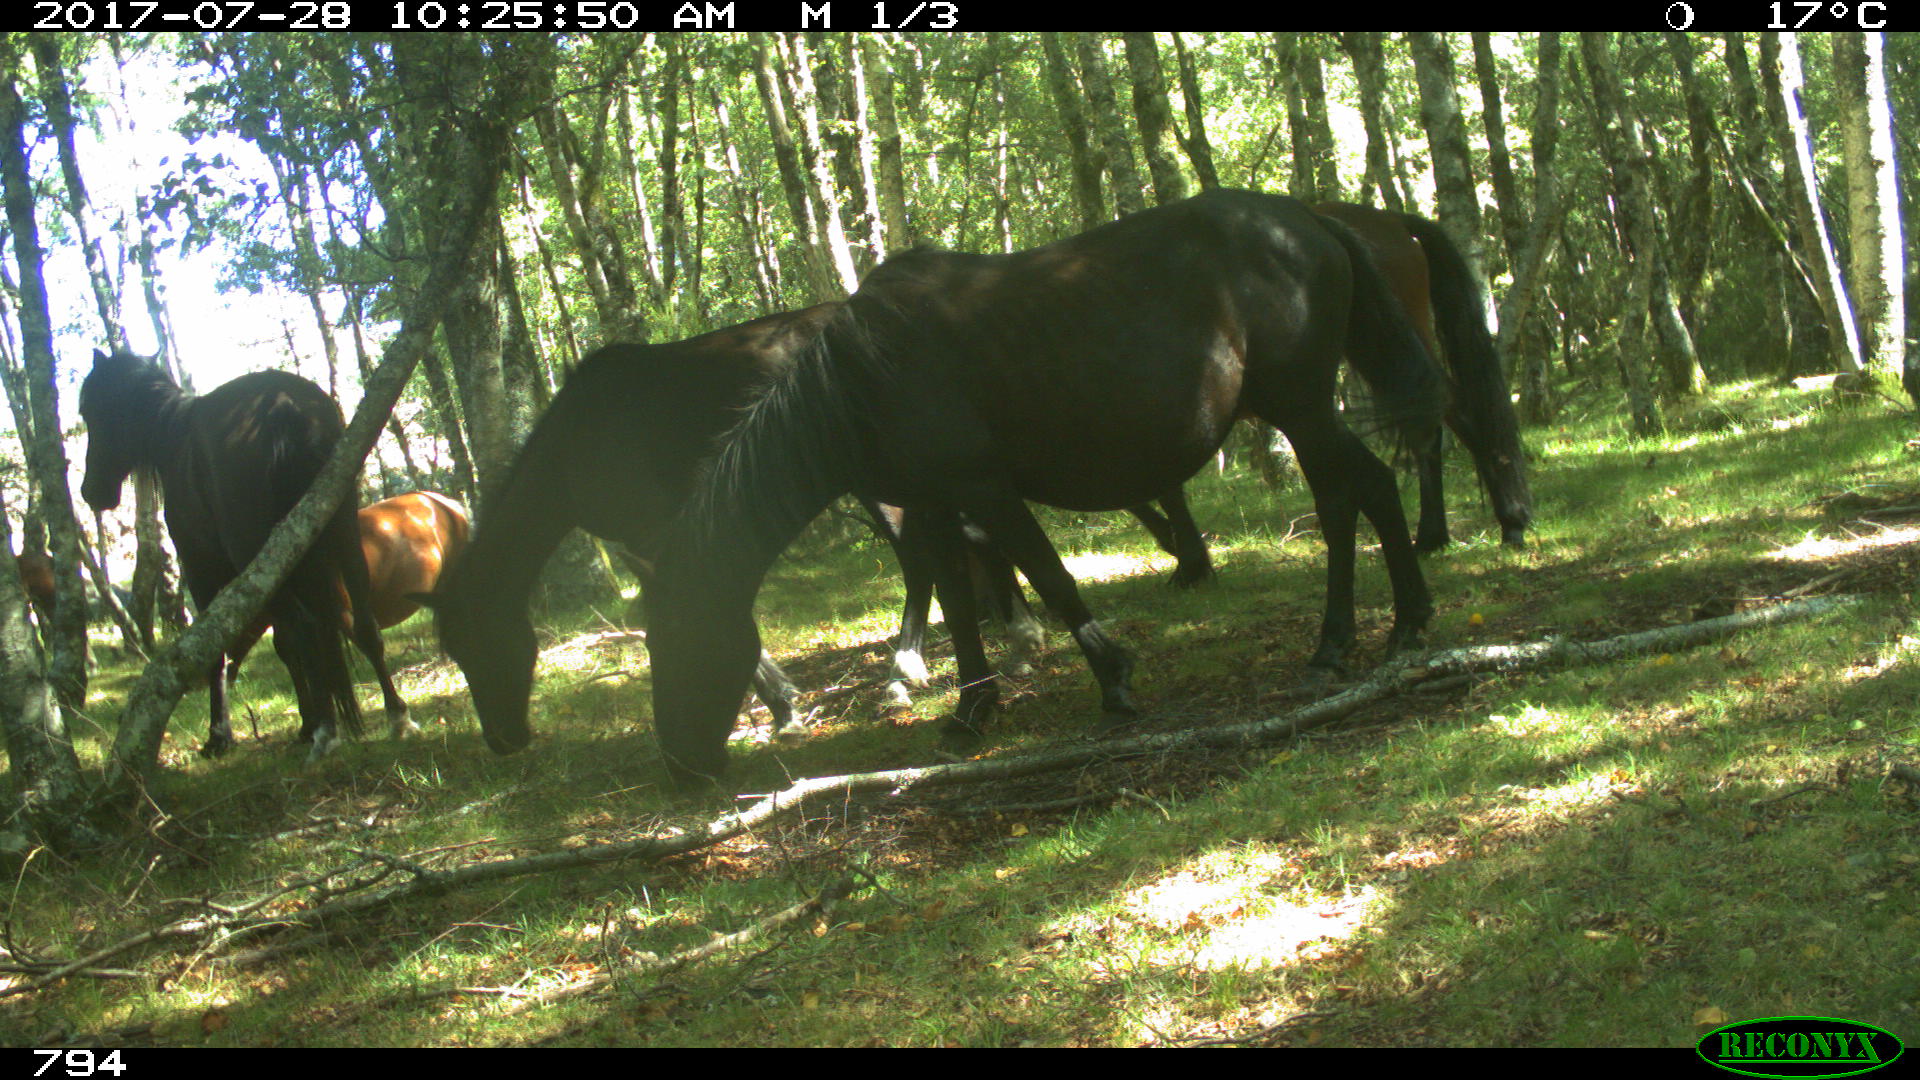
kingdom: Animalia
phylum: Chordata
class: Mammalia
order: Perissodactyla
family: Equidae
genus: Equus
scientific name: Equus caballus
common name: Horse
